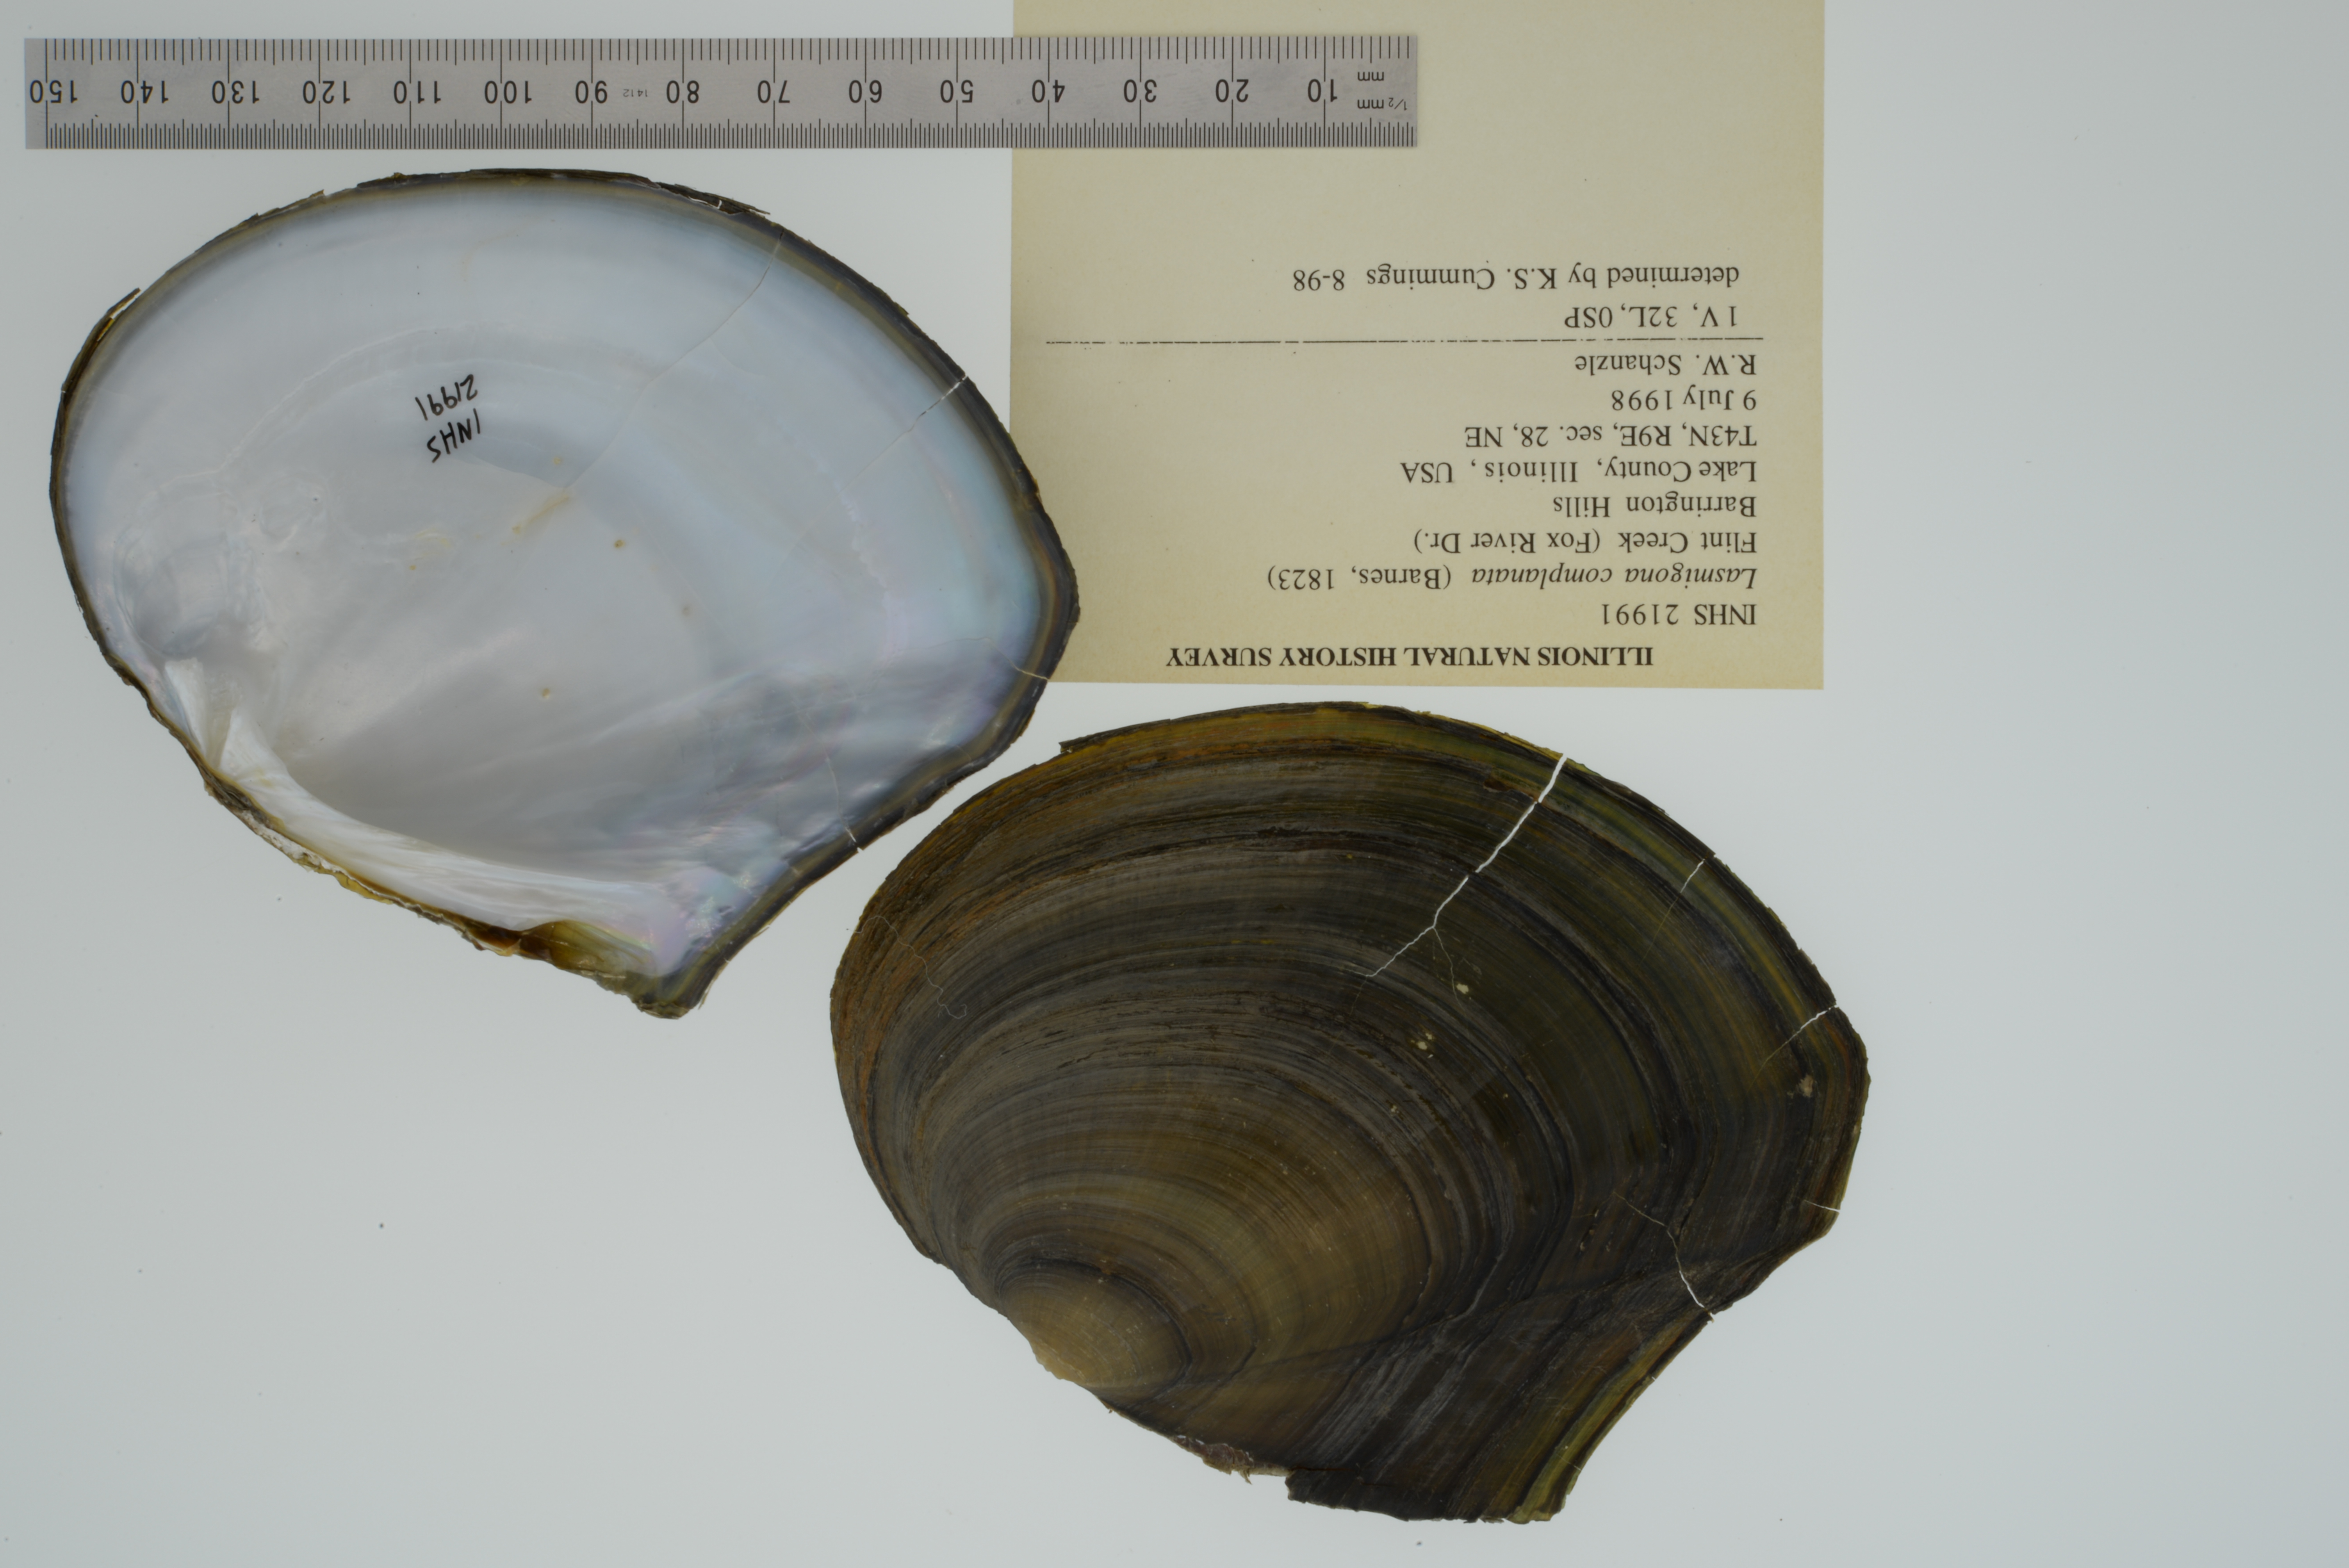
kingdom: Animalia
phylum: Mollusca
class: Bivalvia
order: Unionida
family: Unionidae
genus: Lasmigona
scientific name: Lasmigona complanata
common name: White heelsplitter
